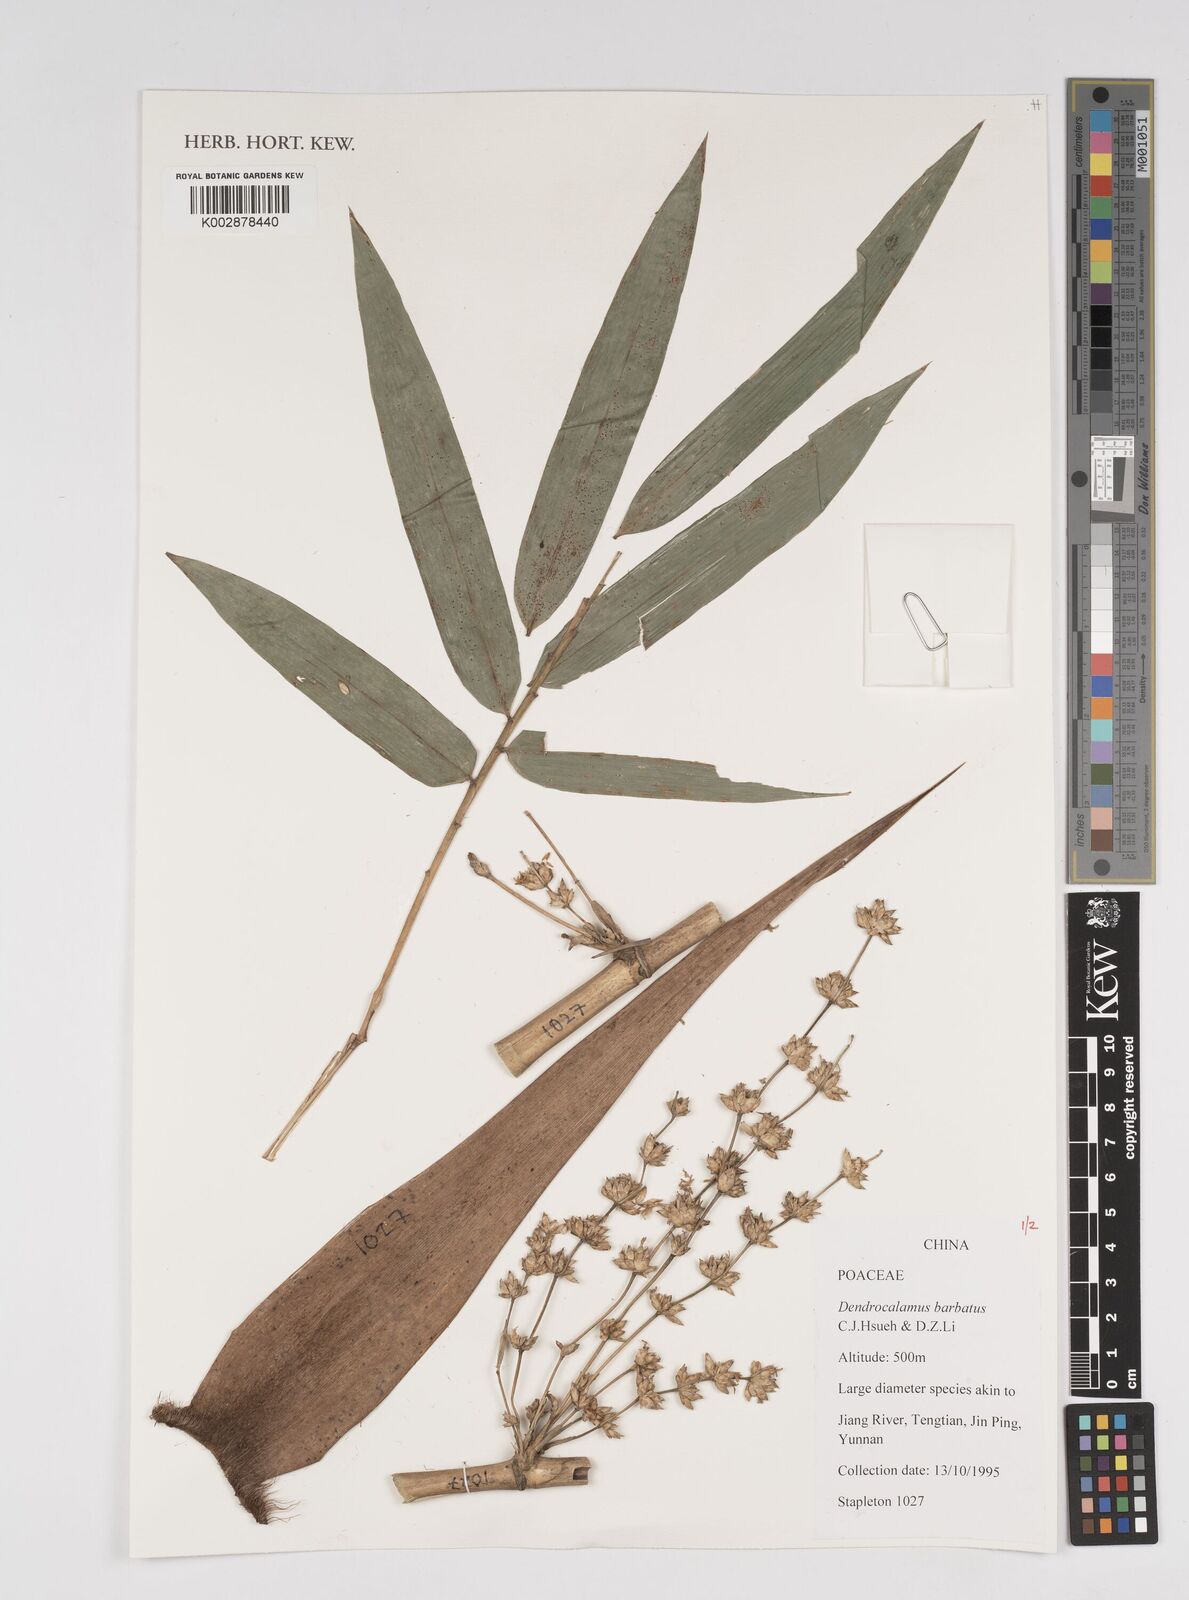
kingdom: Plantae
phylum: Tracheophyta
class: Liliopsida
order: Poales
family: Poaceae
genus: Dendrocalamus
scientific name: Dendrocalamus barbatus
